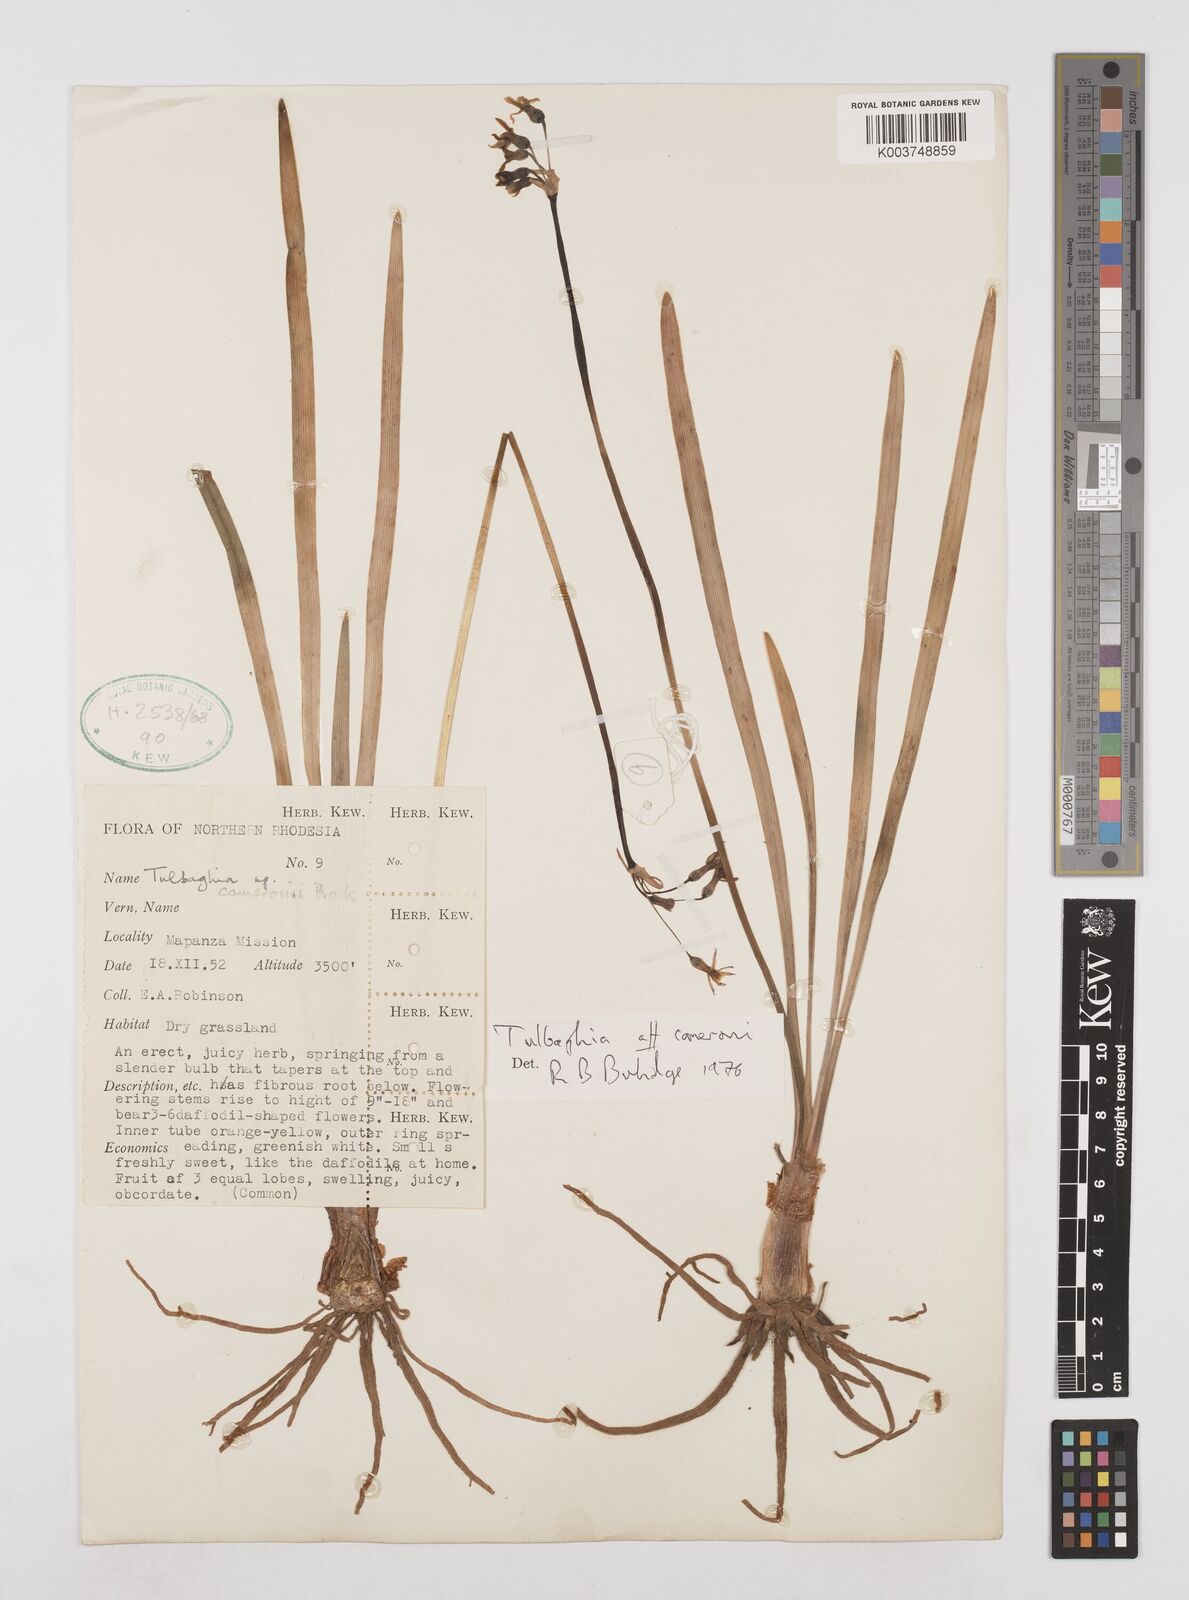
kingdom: Plantae
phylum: Tracheophyta
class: Liliopsida
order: Asparagales
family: Amaryllidaceae
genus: Tulbaghia
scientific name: Tulbaghia cameronii
